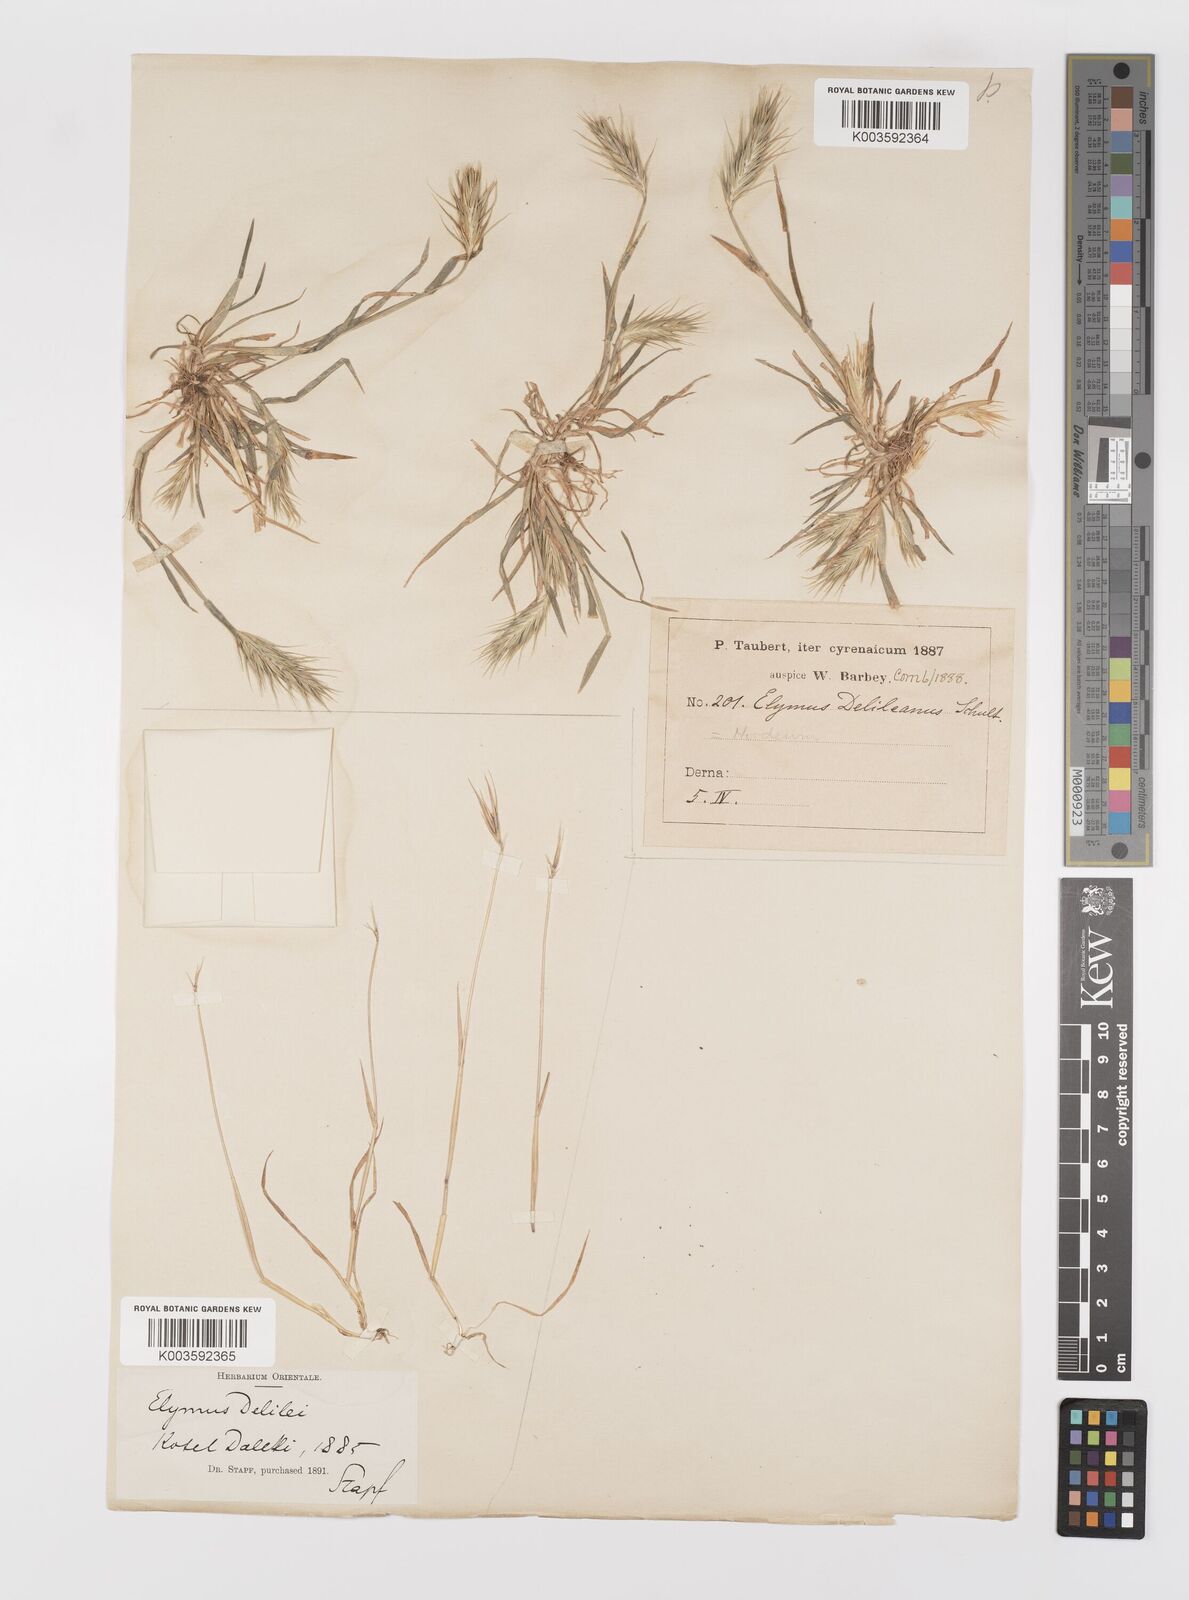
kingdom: Plantae
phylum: Tracheophyta
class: Liliopsida
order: Poales
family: Poaceae
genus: Crithopsis
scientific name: Crithopsis delileana
